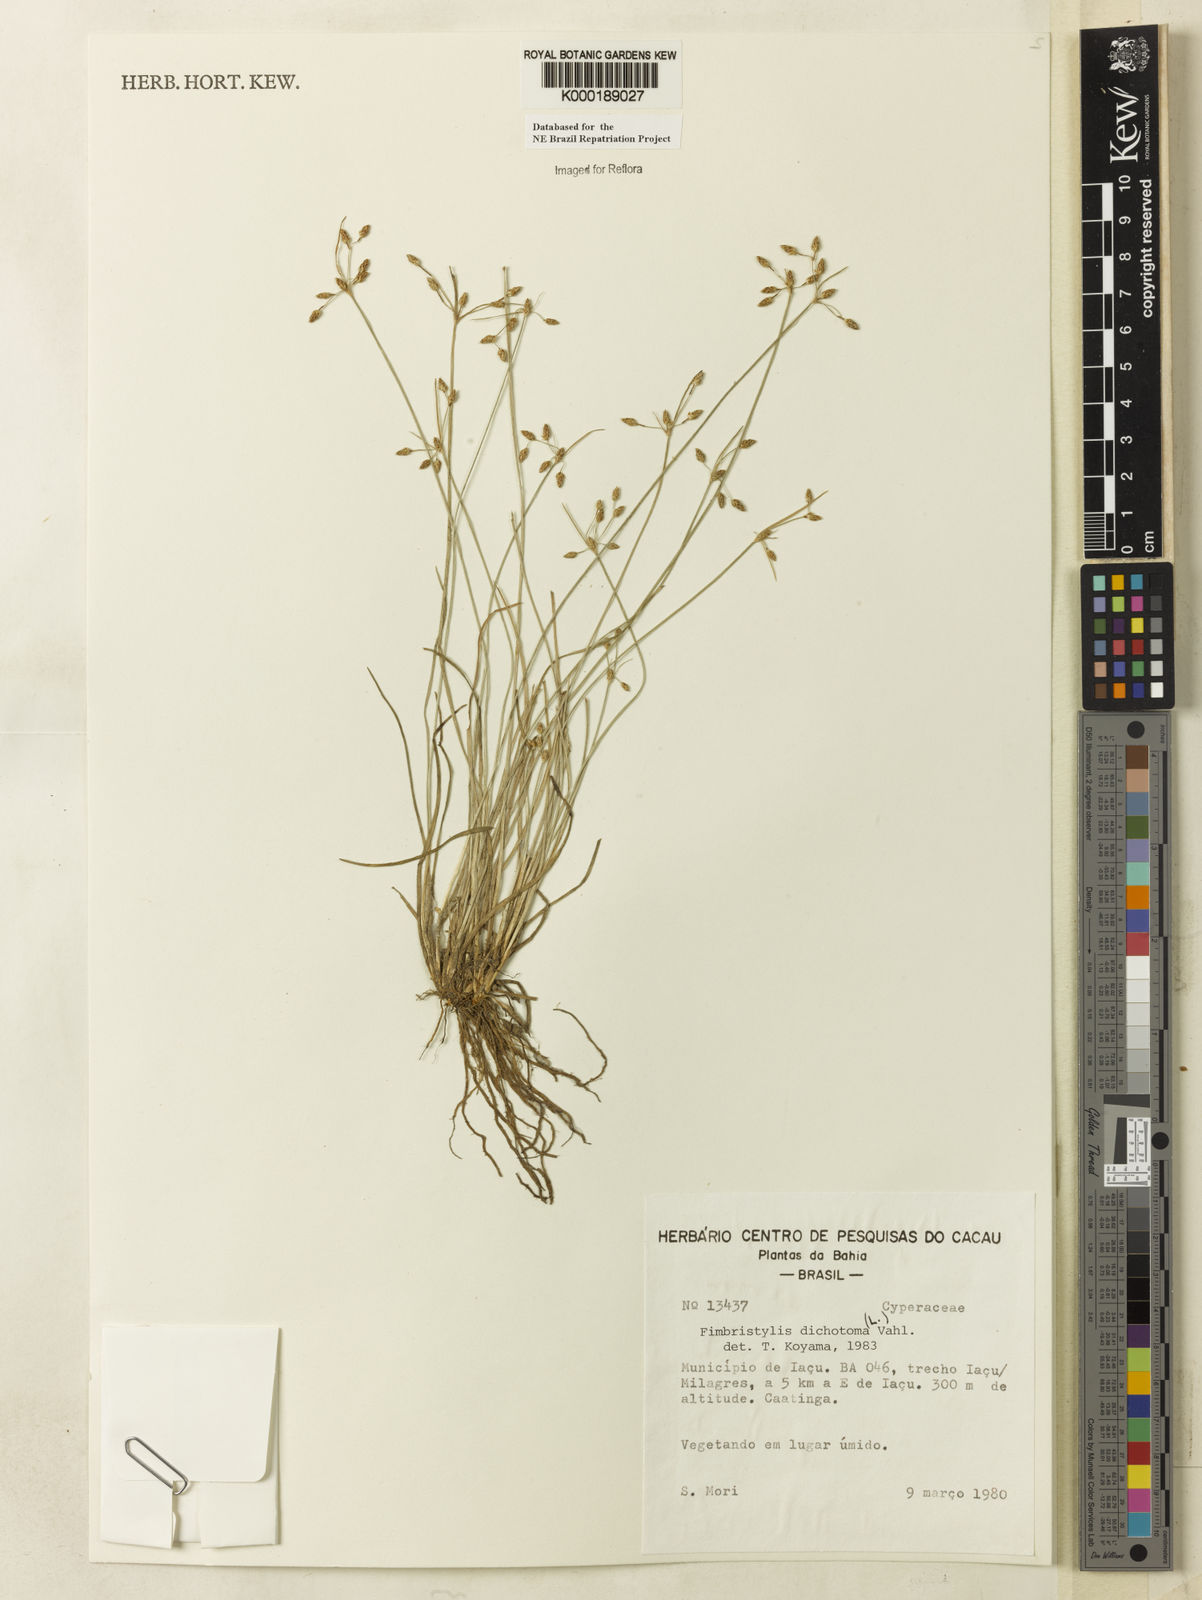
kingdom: Plantae
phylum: Tracheophyta
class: Liliopsida
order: Poales
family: Cyperaceae
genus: Fimbristylis
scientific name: Fimbristylis dichotoma
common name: Forked fimbry
